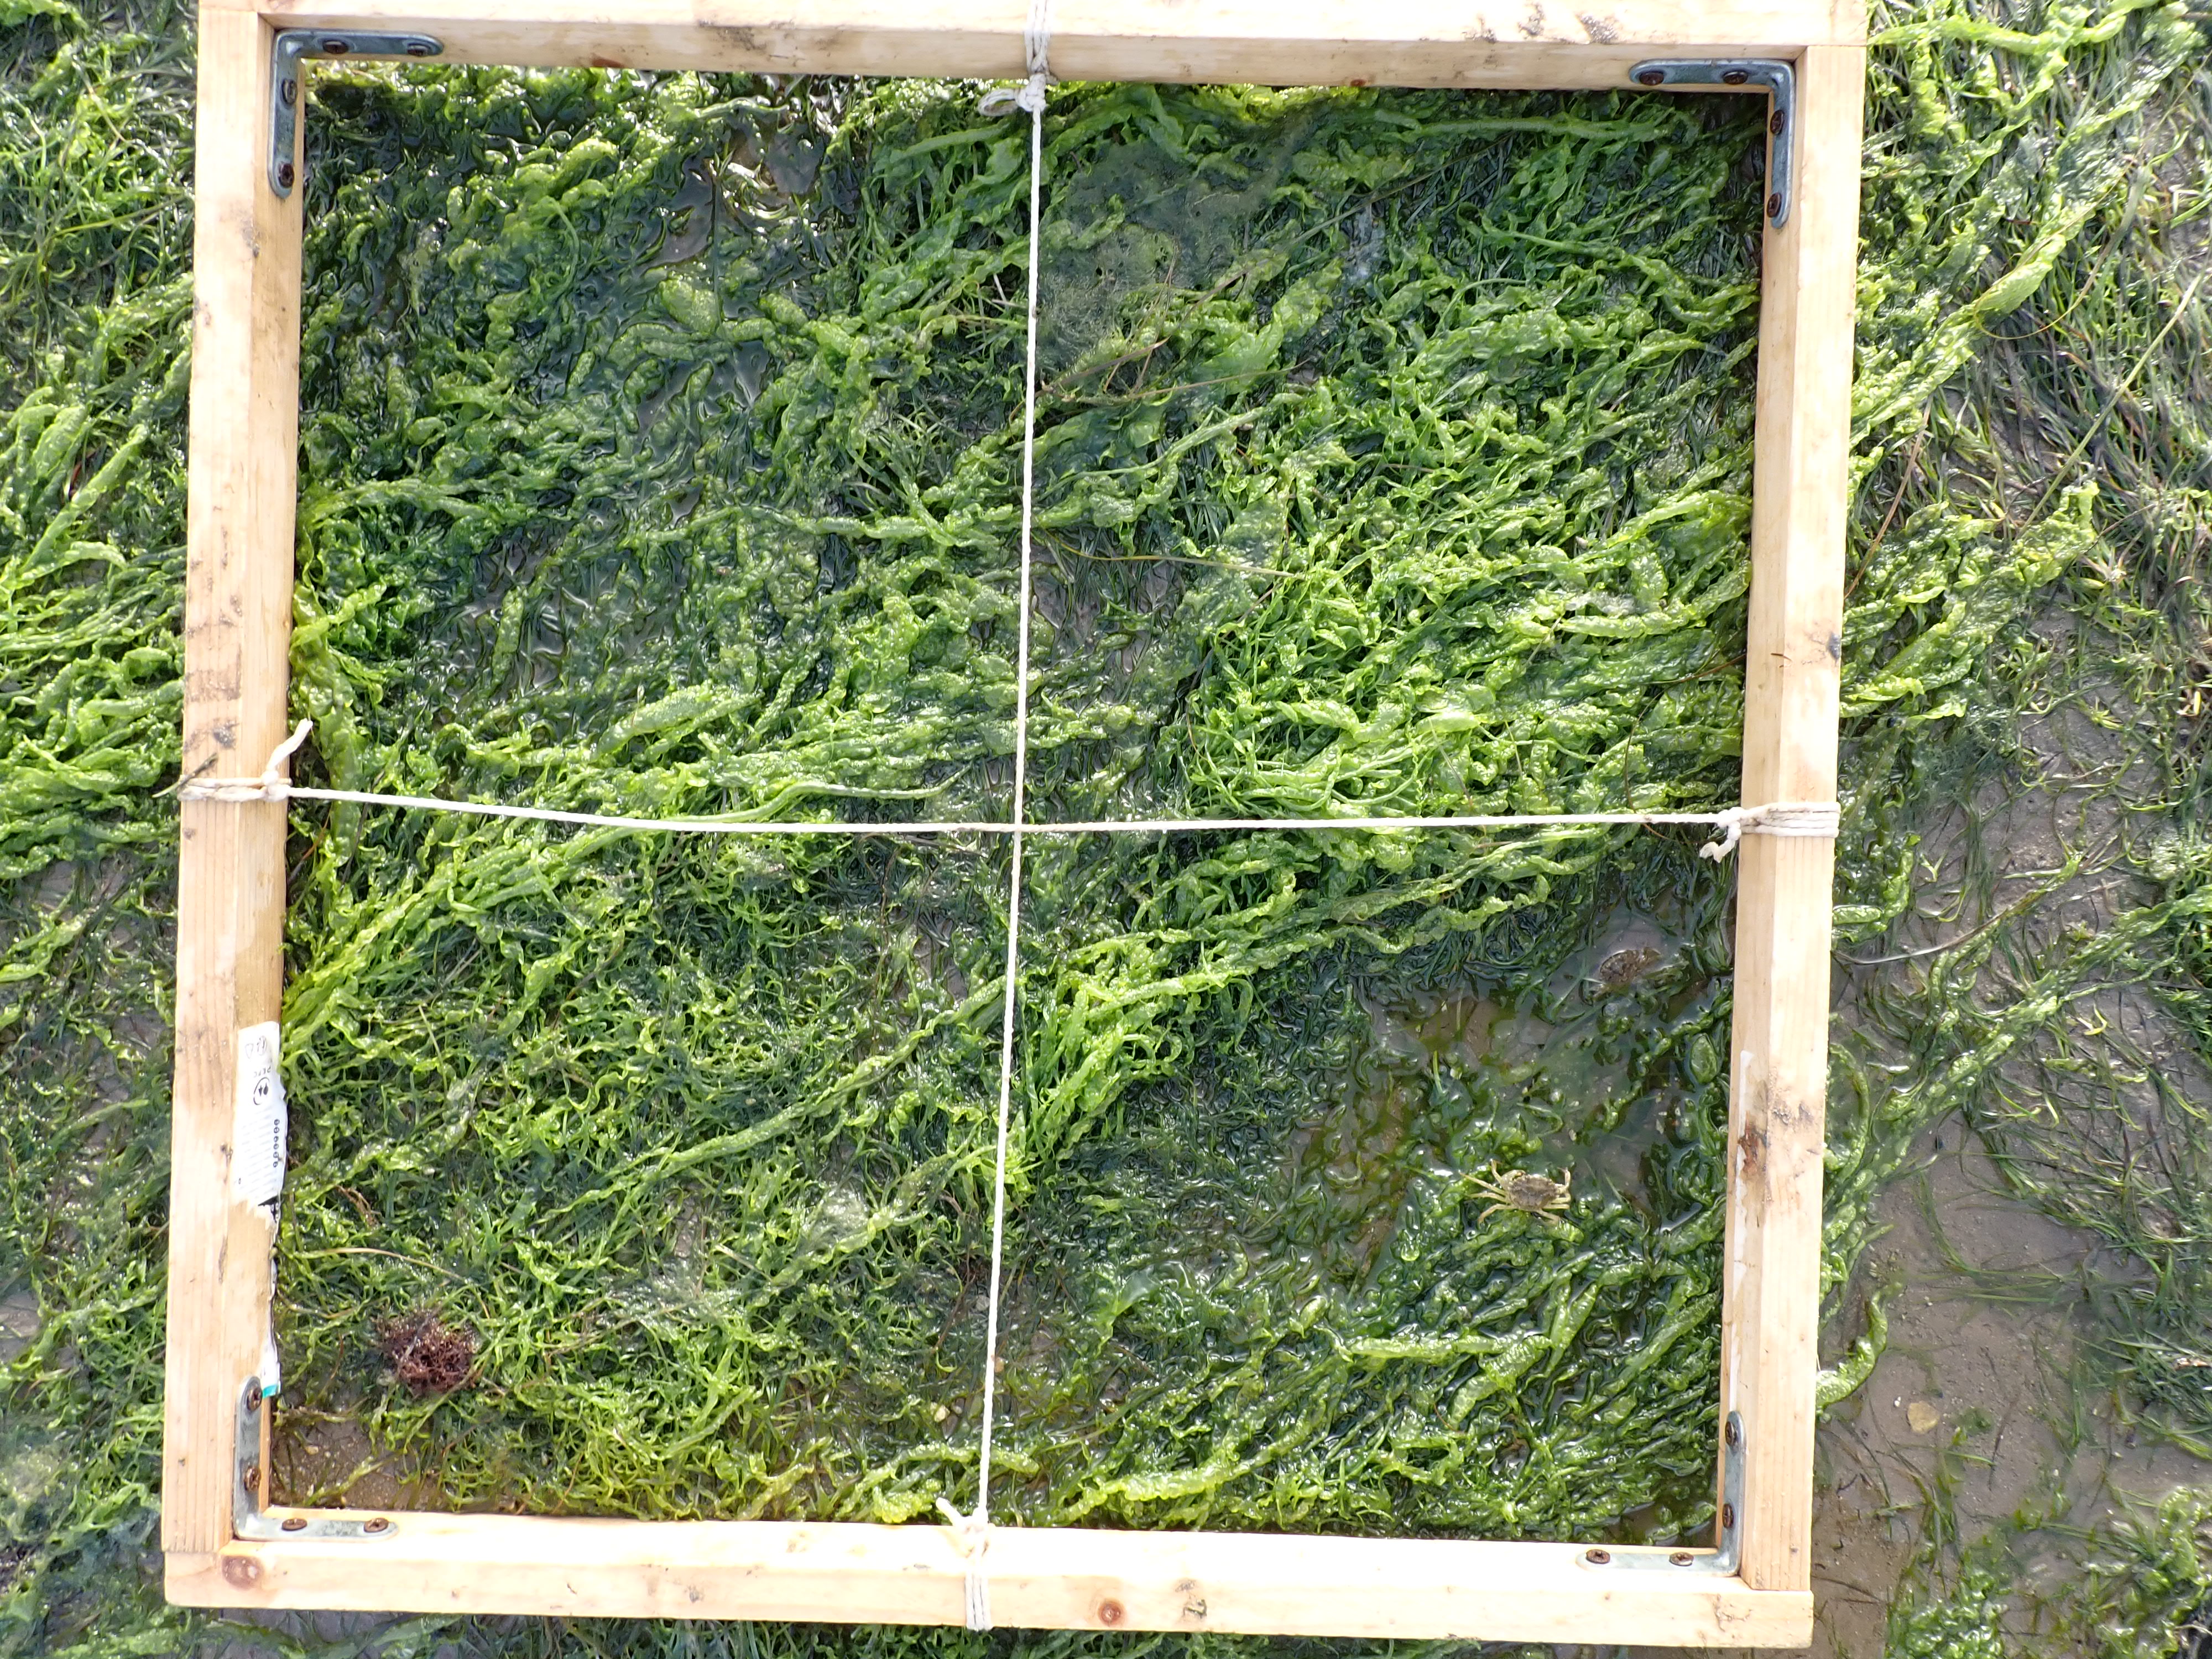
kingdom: Plantae
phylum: Chlorophyta
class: Ulvophyceae
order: Ulvales
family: Ulvaceae
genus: Ulva
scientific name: Ulva
